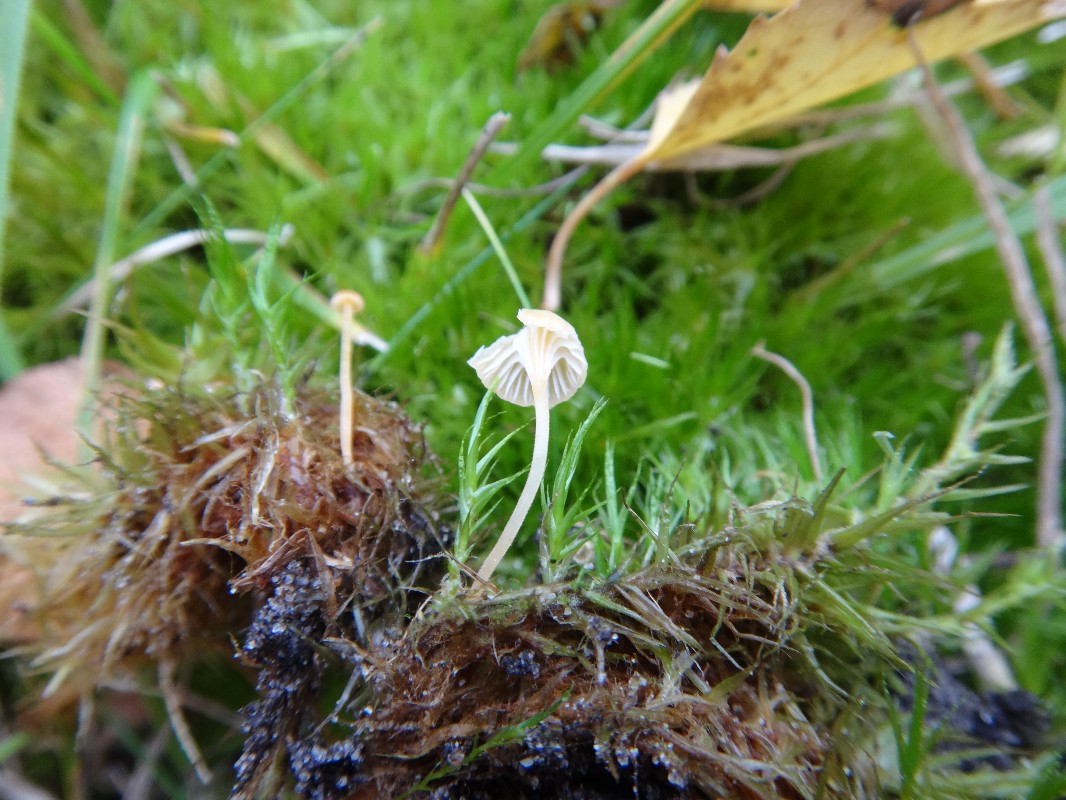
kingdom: Fungi
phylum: Basidiomycota
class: Agaricomycetes
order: Hymenochaetales
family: Rickenellaceae
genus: Rickenella
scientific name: Rickenella fibula
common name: orange mosnavlehat
